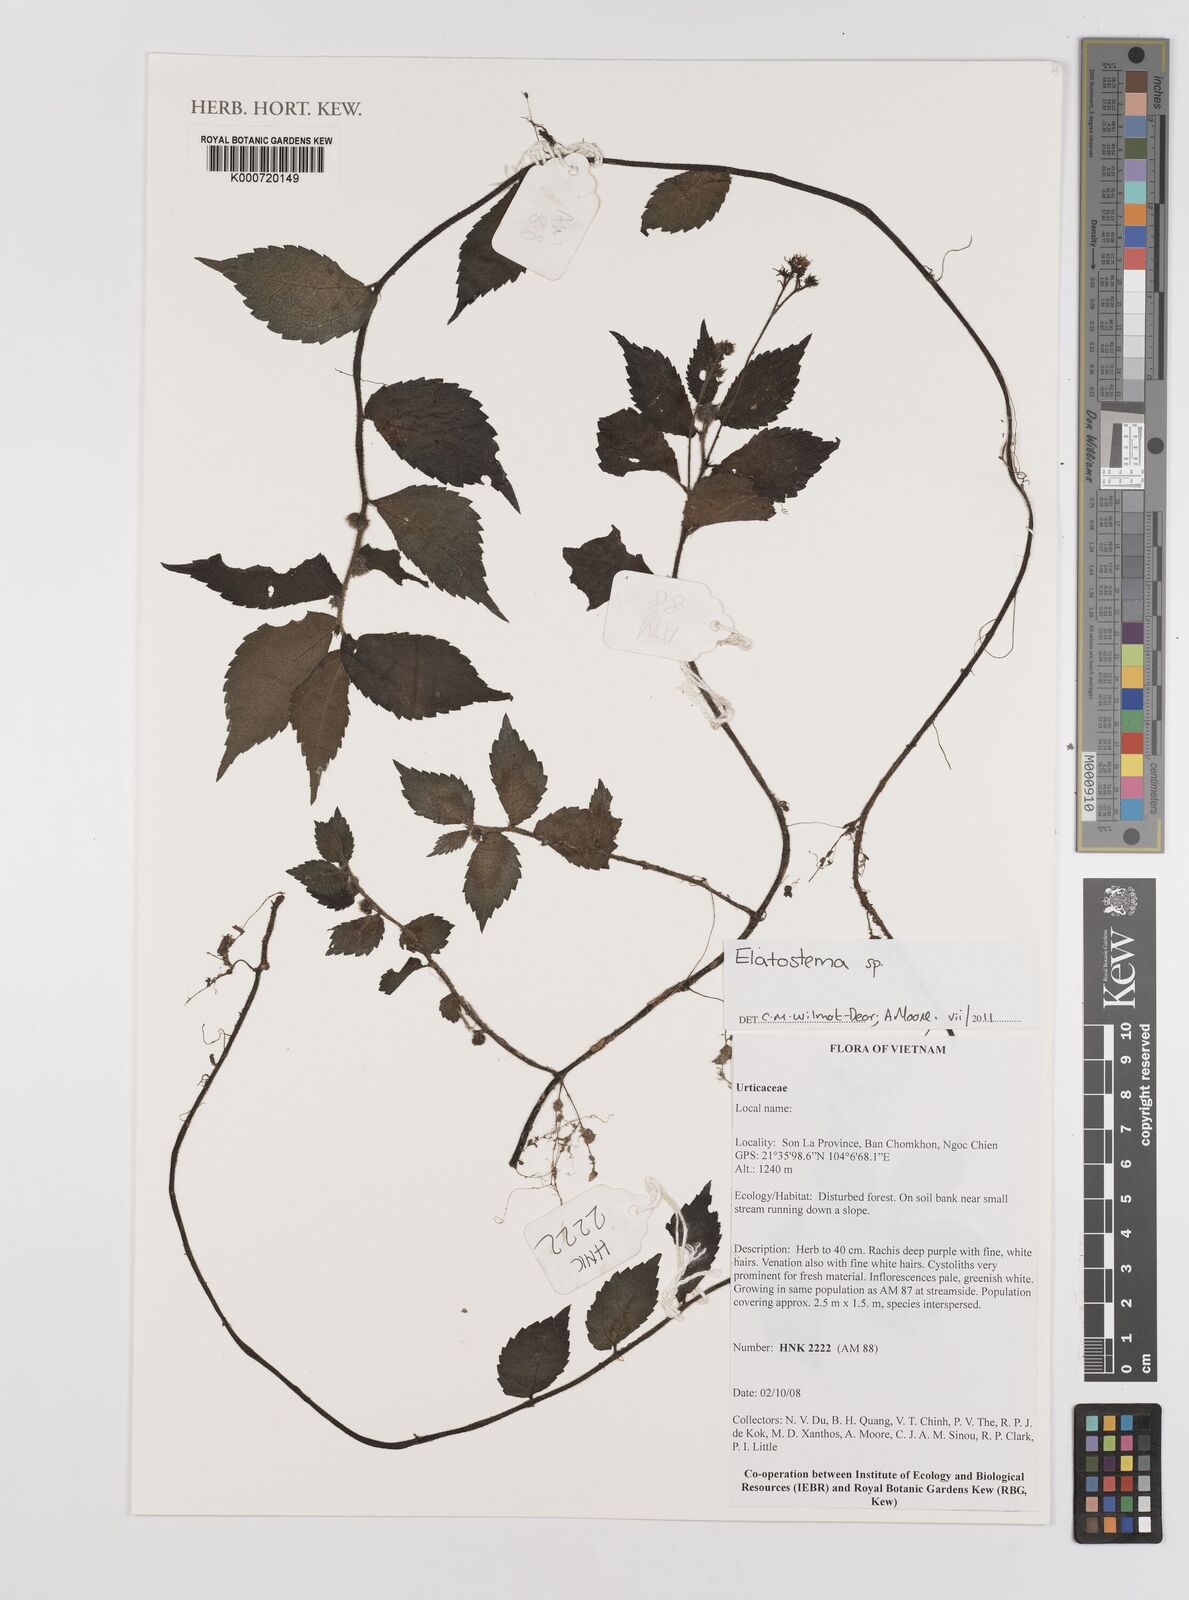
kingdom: Plantae
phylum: Tracheophyta
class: Magnoliopsida
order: Rosales
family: Urticaceae
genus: Elatostema
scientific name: Elatostema
